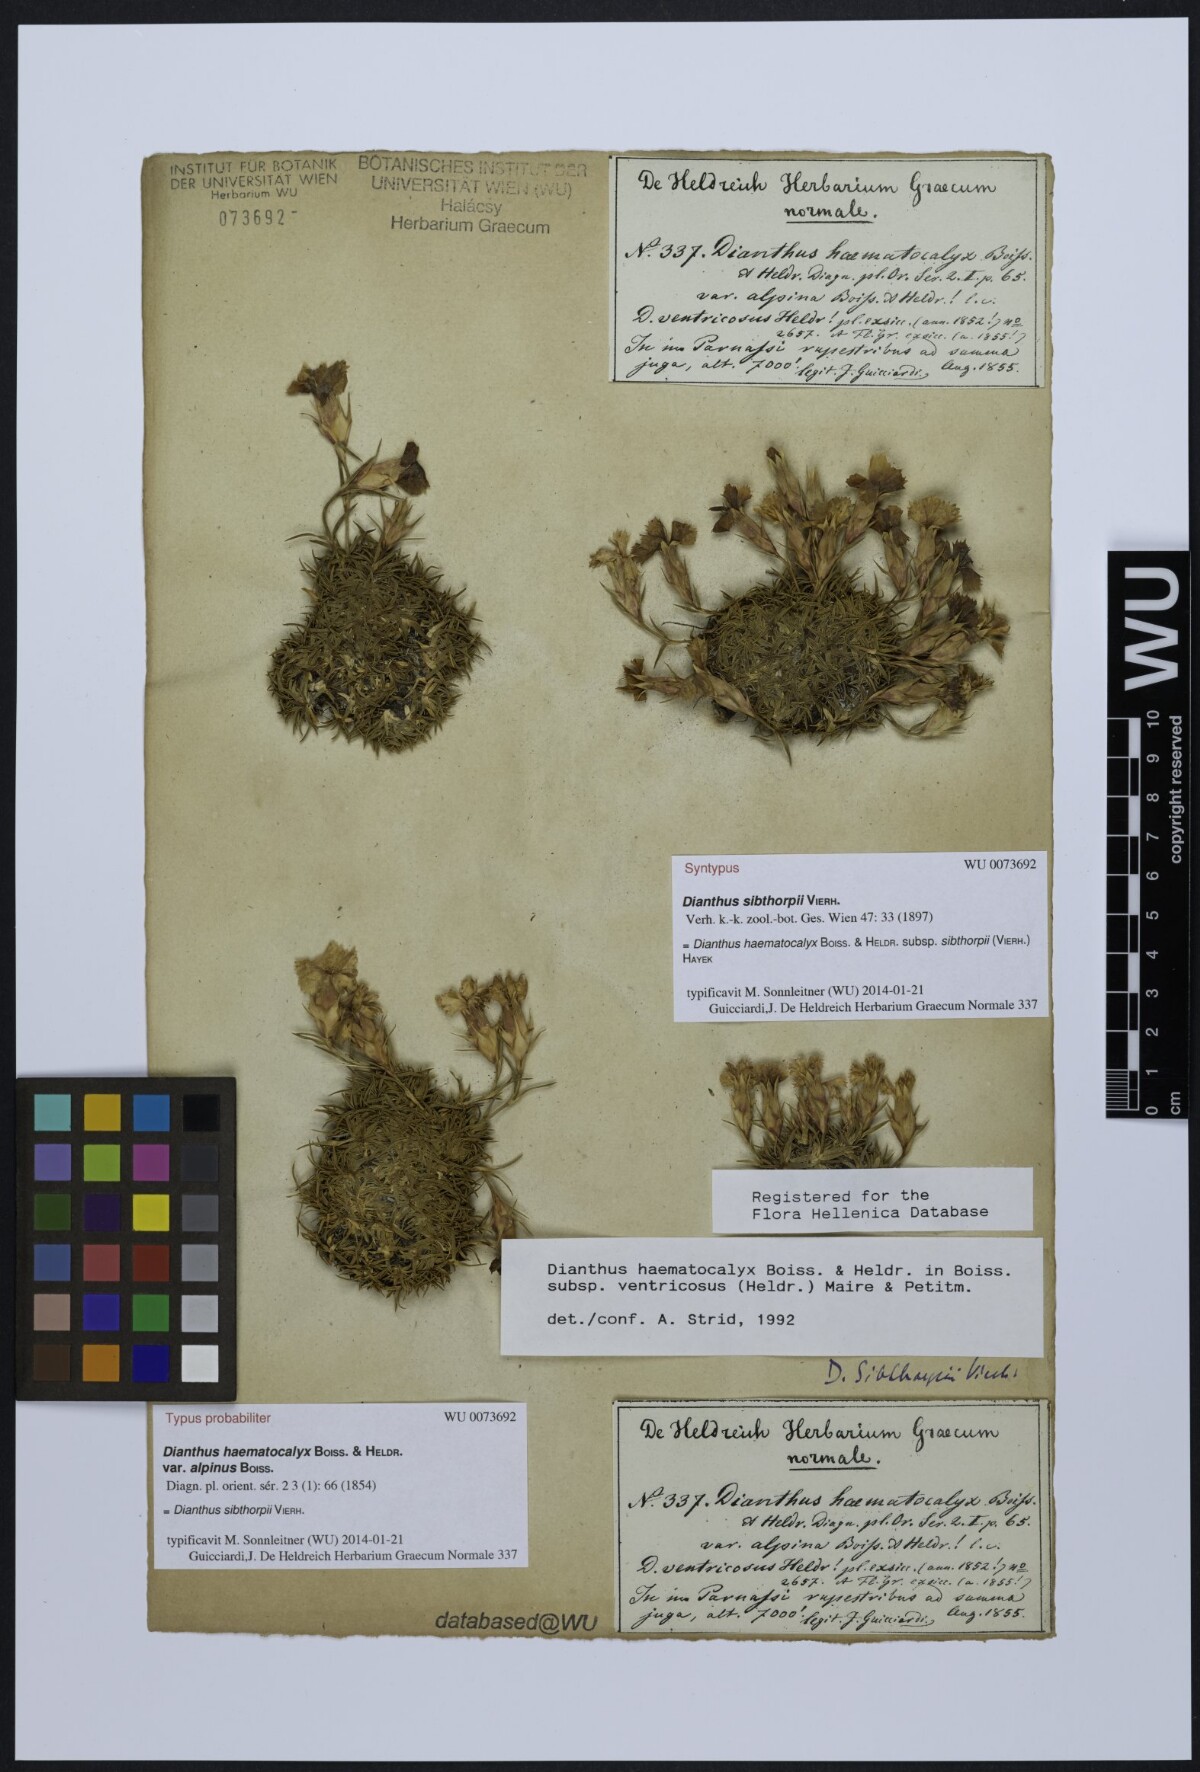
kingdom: Plantae
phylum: Tracheophyta
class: Magnoliopsida
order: Caryophyllales
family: Caryophyllaceae
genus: Dianthus
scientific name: Dianthus haematocalyx
